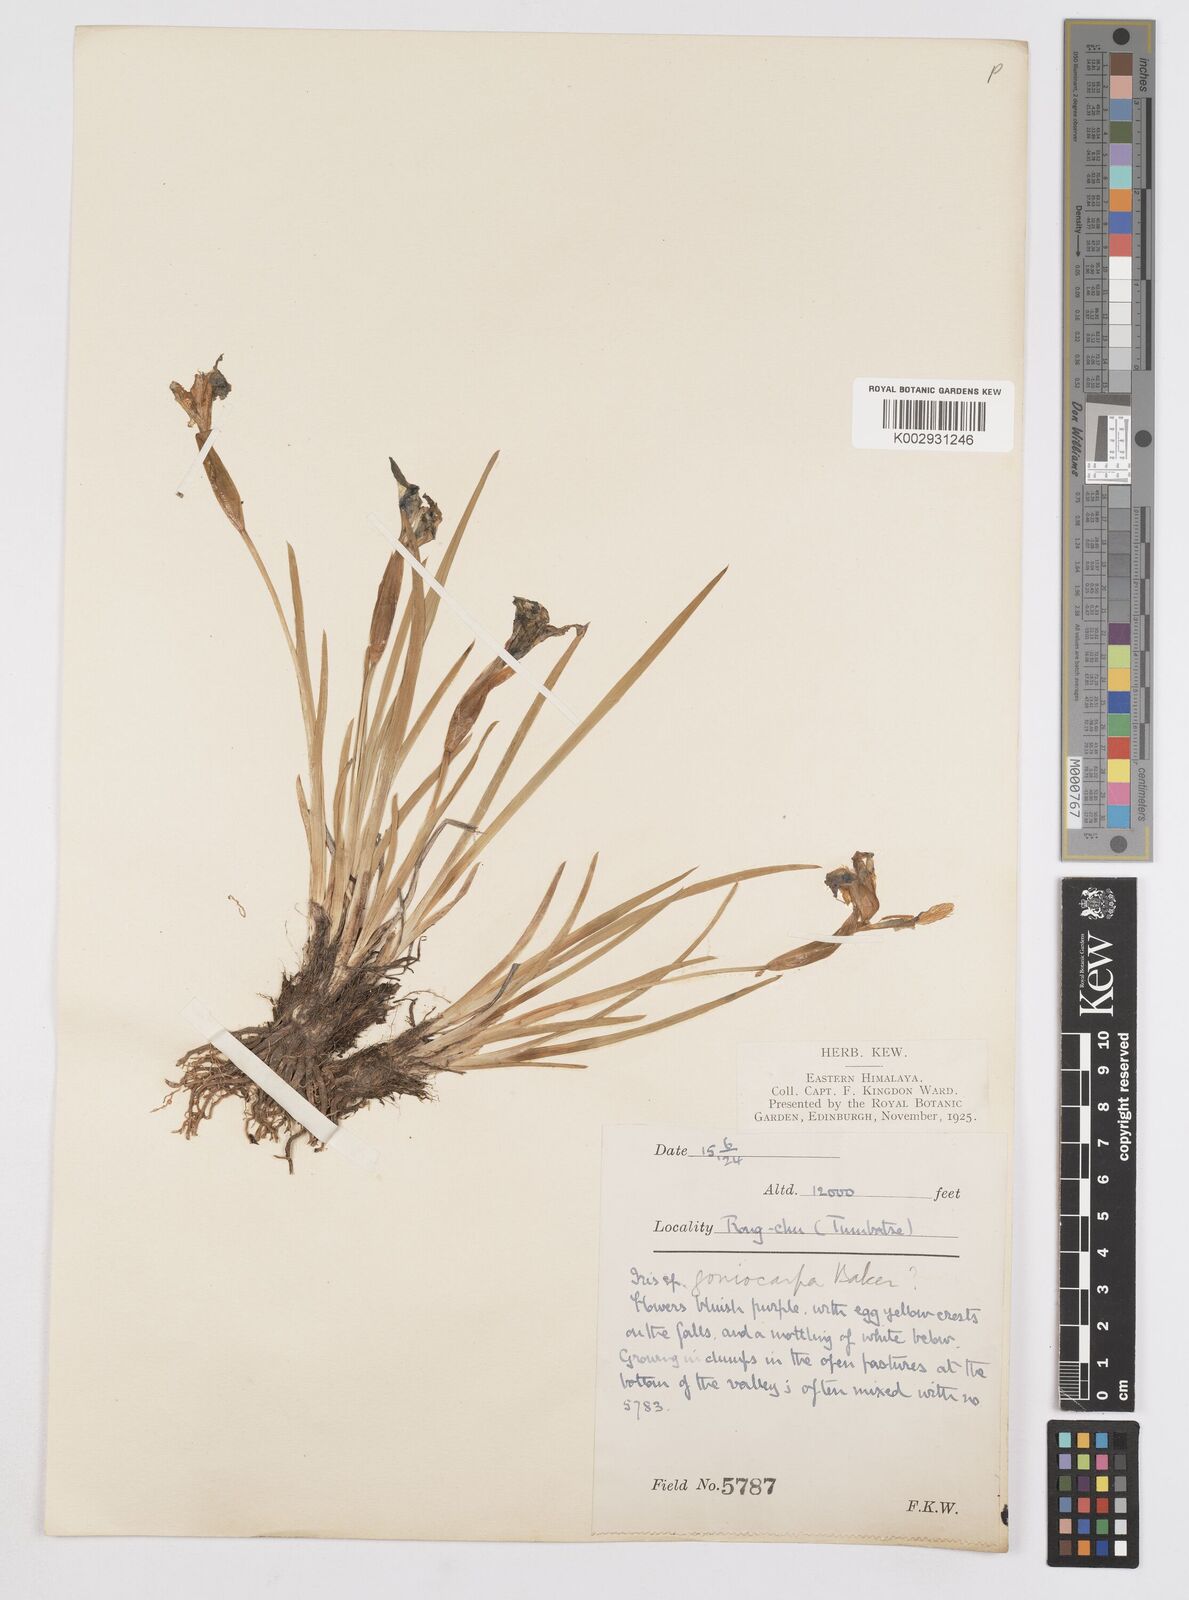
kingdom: Plantae
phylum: Tracheophyta
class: Liliopsida
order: Asparagales
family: Iridaceae
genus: Iris
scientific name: Iris goniocarpa
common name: Angular-fruit iris
